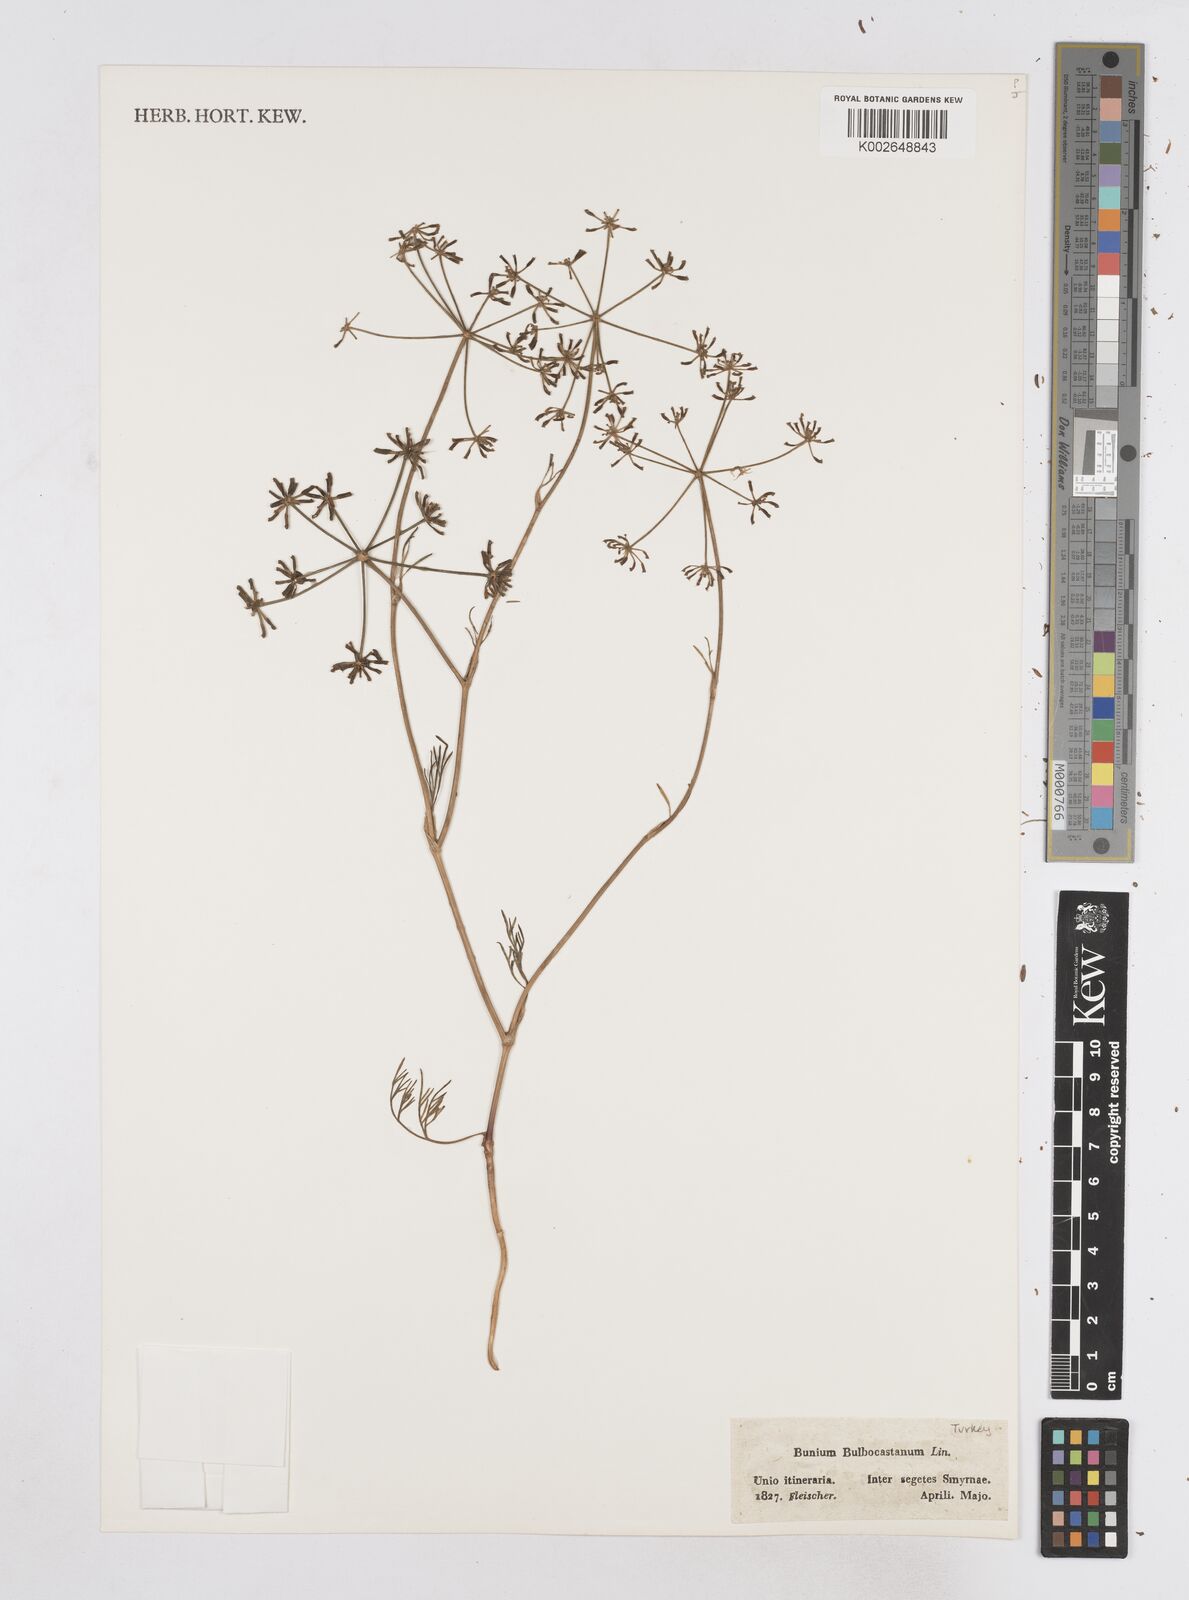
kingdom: Plantae
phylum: Tracheophyta
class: Magnoliopsida
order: Apiales
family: Apiaceae
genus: Bunium
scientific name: Bunium bulbocastanum
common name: Great pignut
